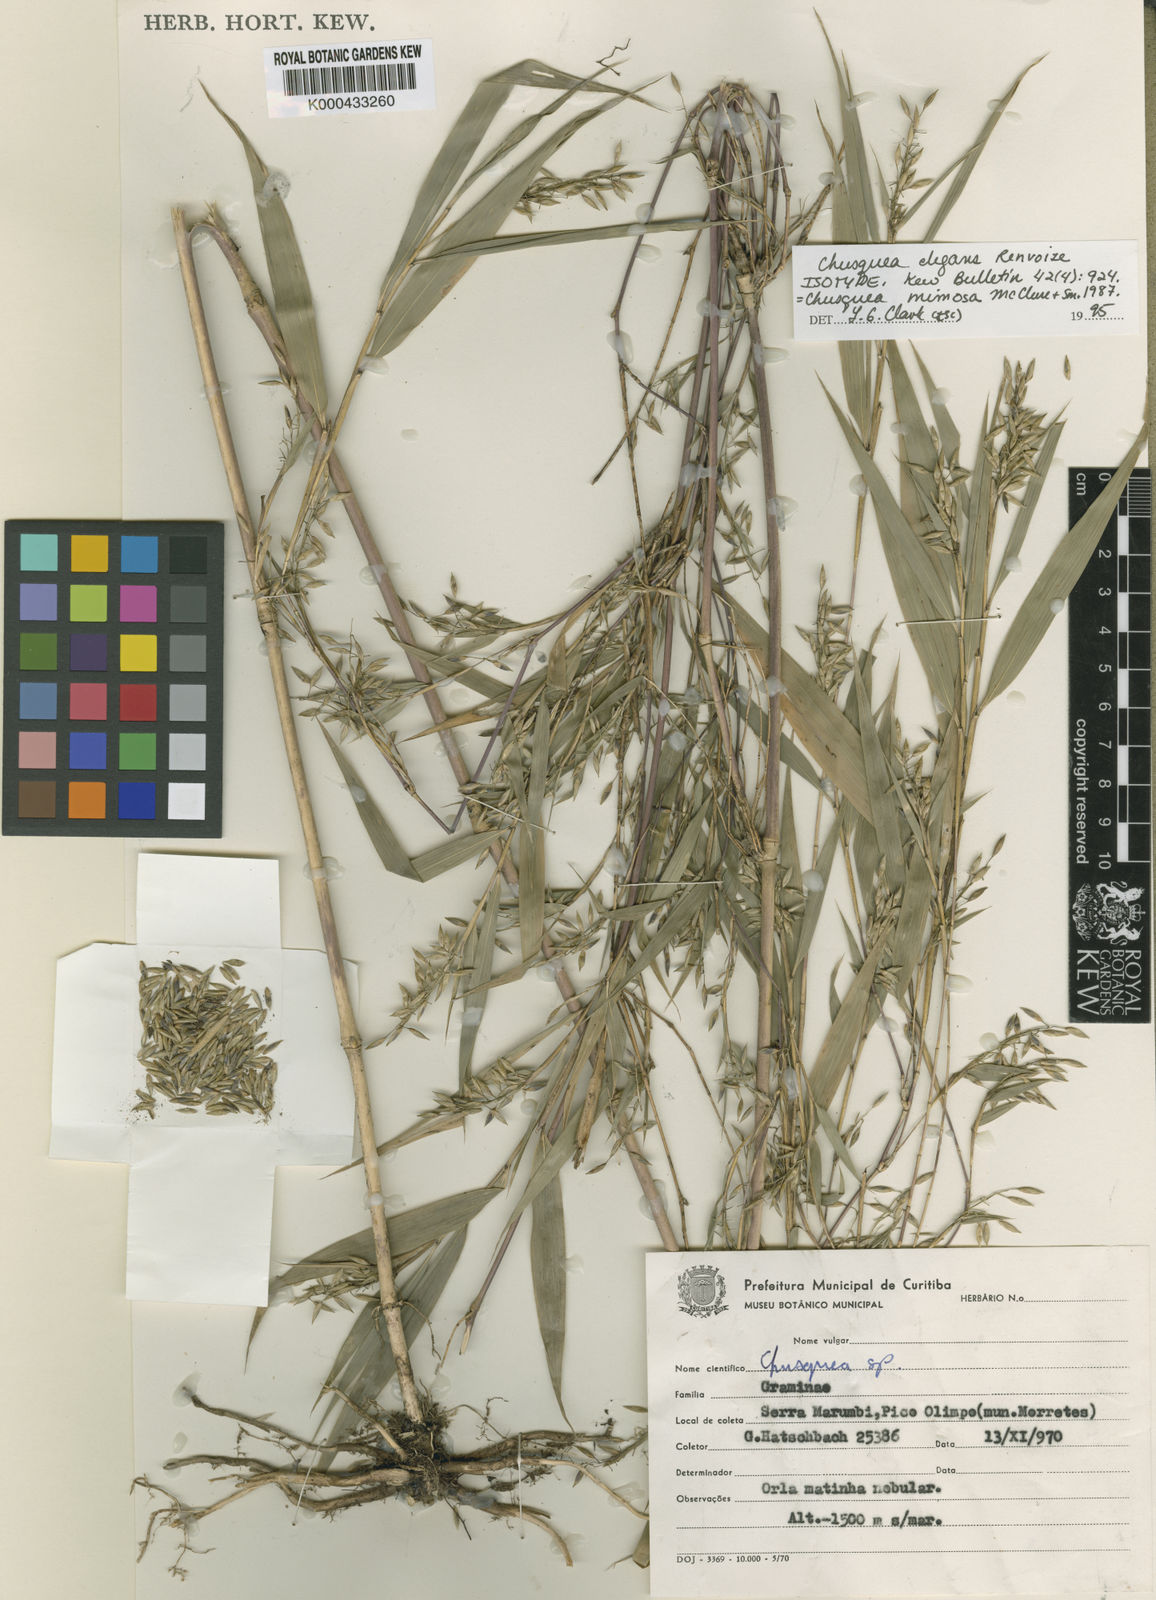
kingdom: Plantae
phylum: Tracheophyta
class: Liliopsida
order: Poales
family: Poaceae
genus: Chusquea
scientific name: Chusquea mimosa
